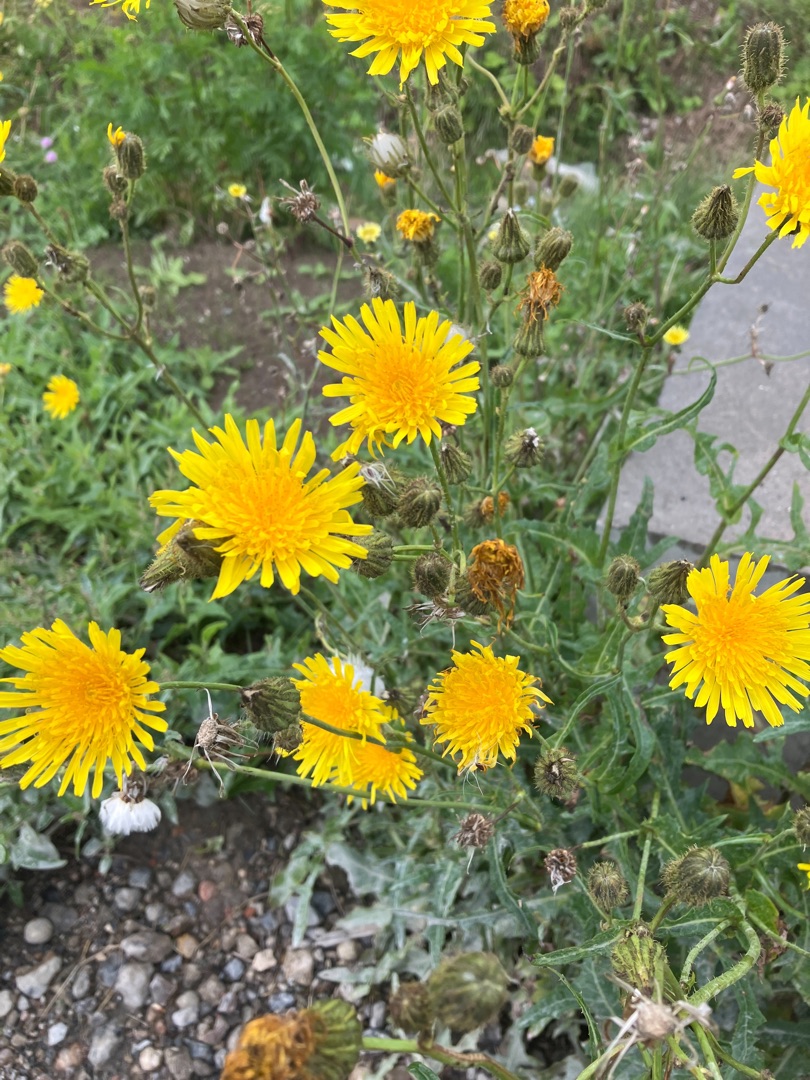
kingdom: Plantae
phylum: Tracheophyta
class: Magnoliopsida
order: Asterales
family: Asteraceae
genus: Sonchus
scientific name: Sonchus arvensis
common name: Ager-svinemælk
